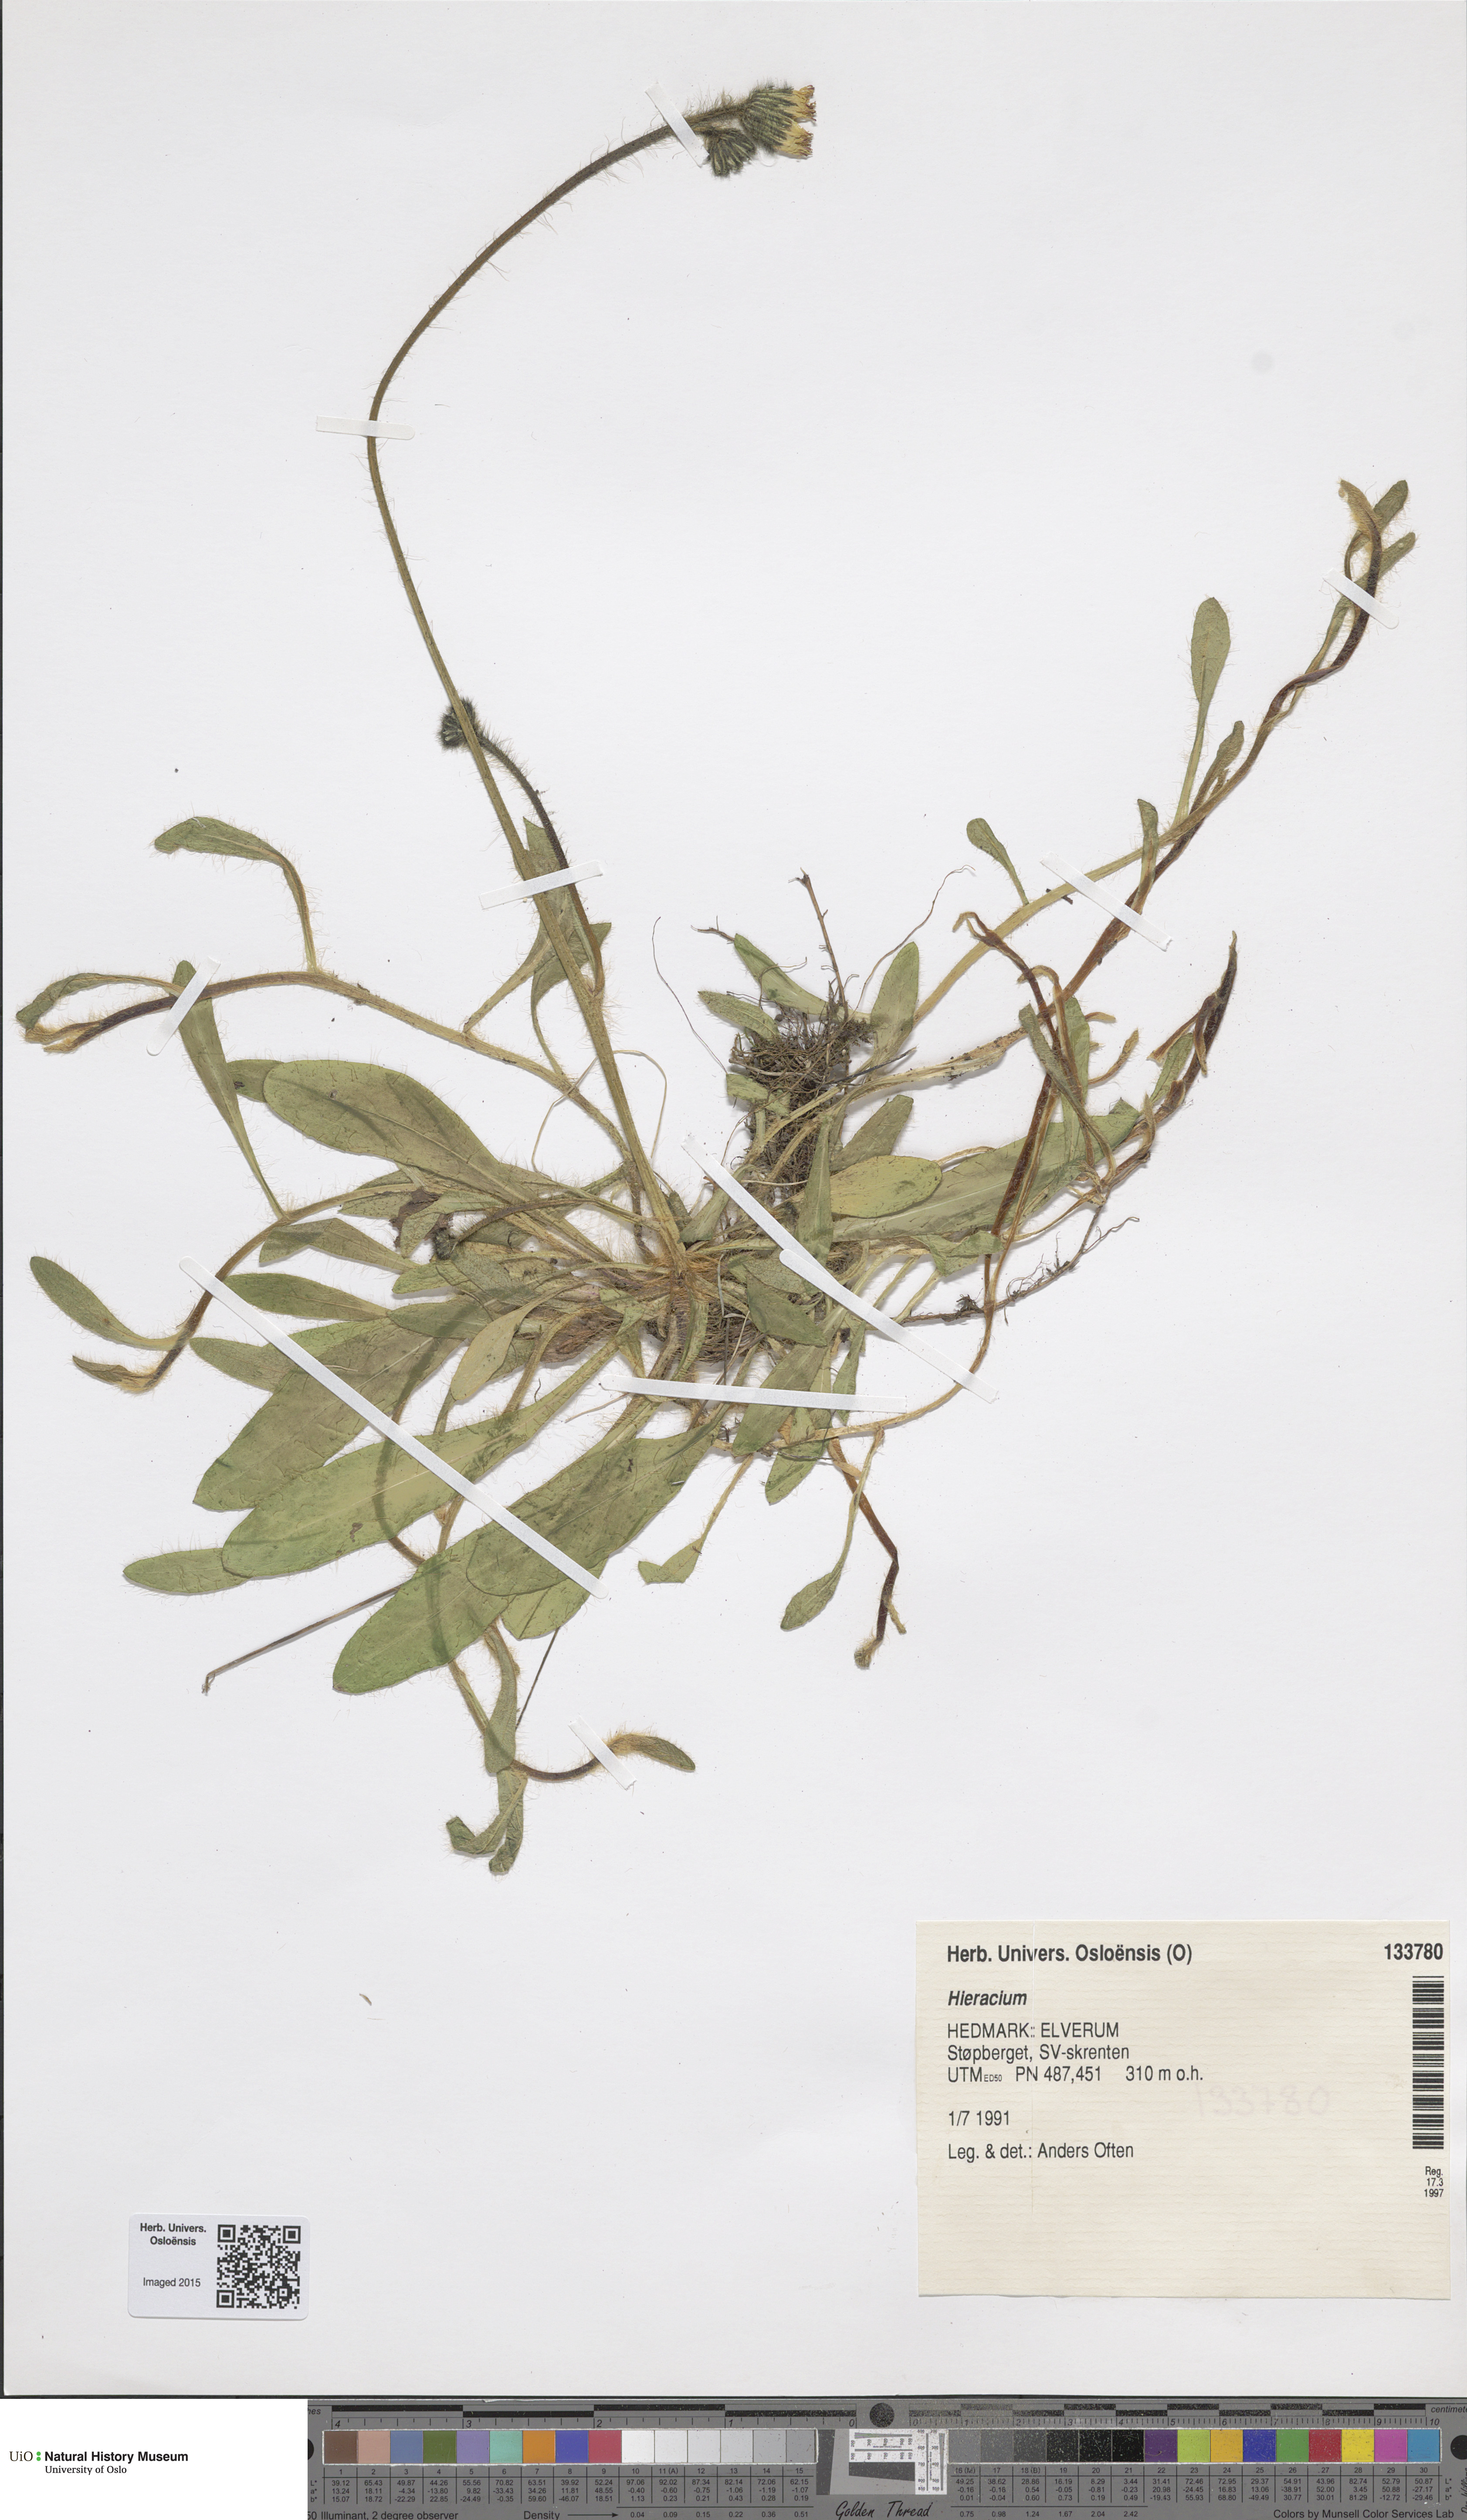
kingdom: Plantae
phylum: Tracheophyta
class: Magnoliopsida
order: Asterales
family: Asteraceae
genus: Hieracium
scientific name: Hieracium
